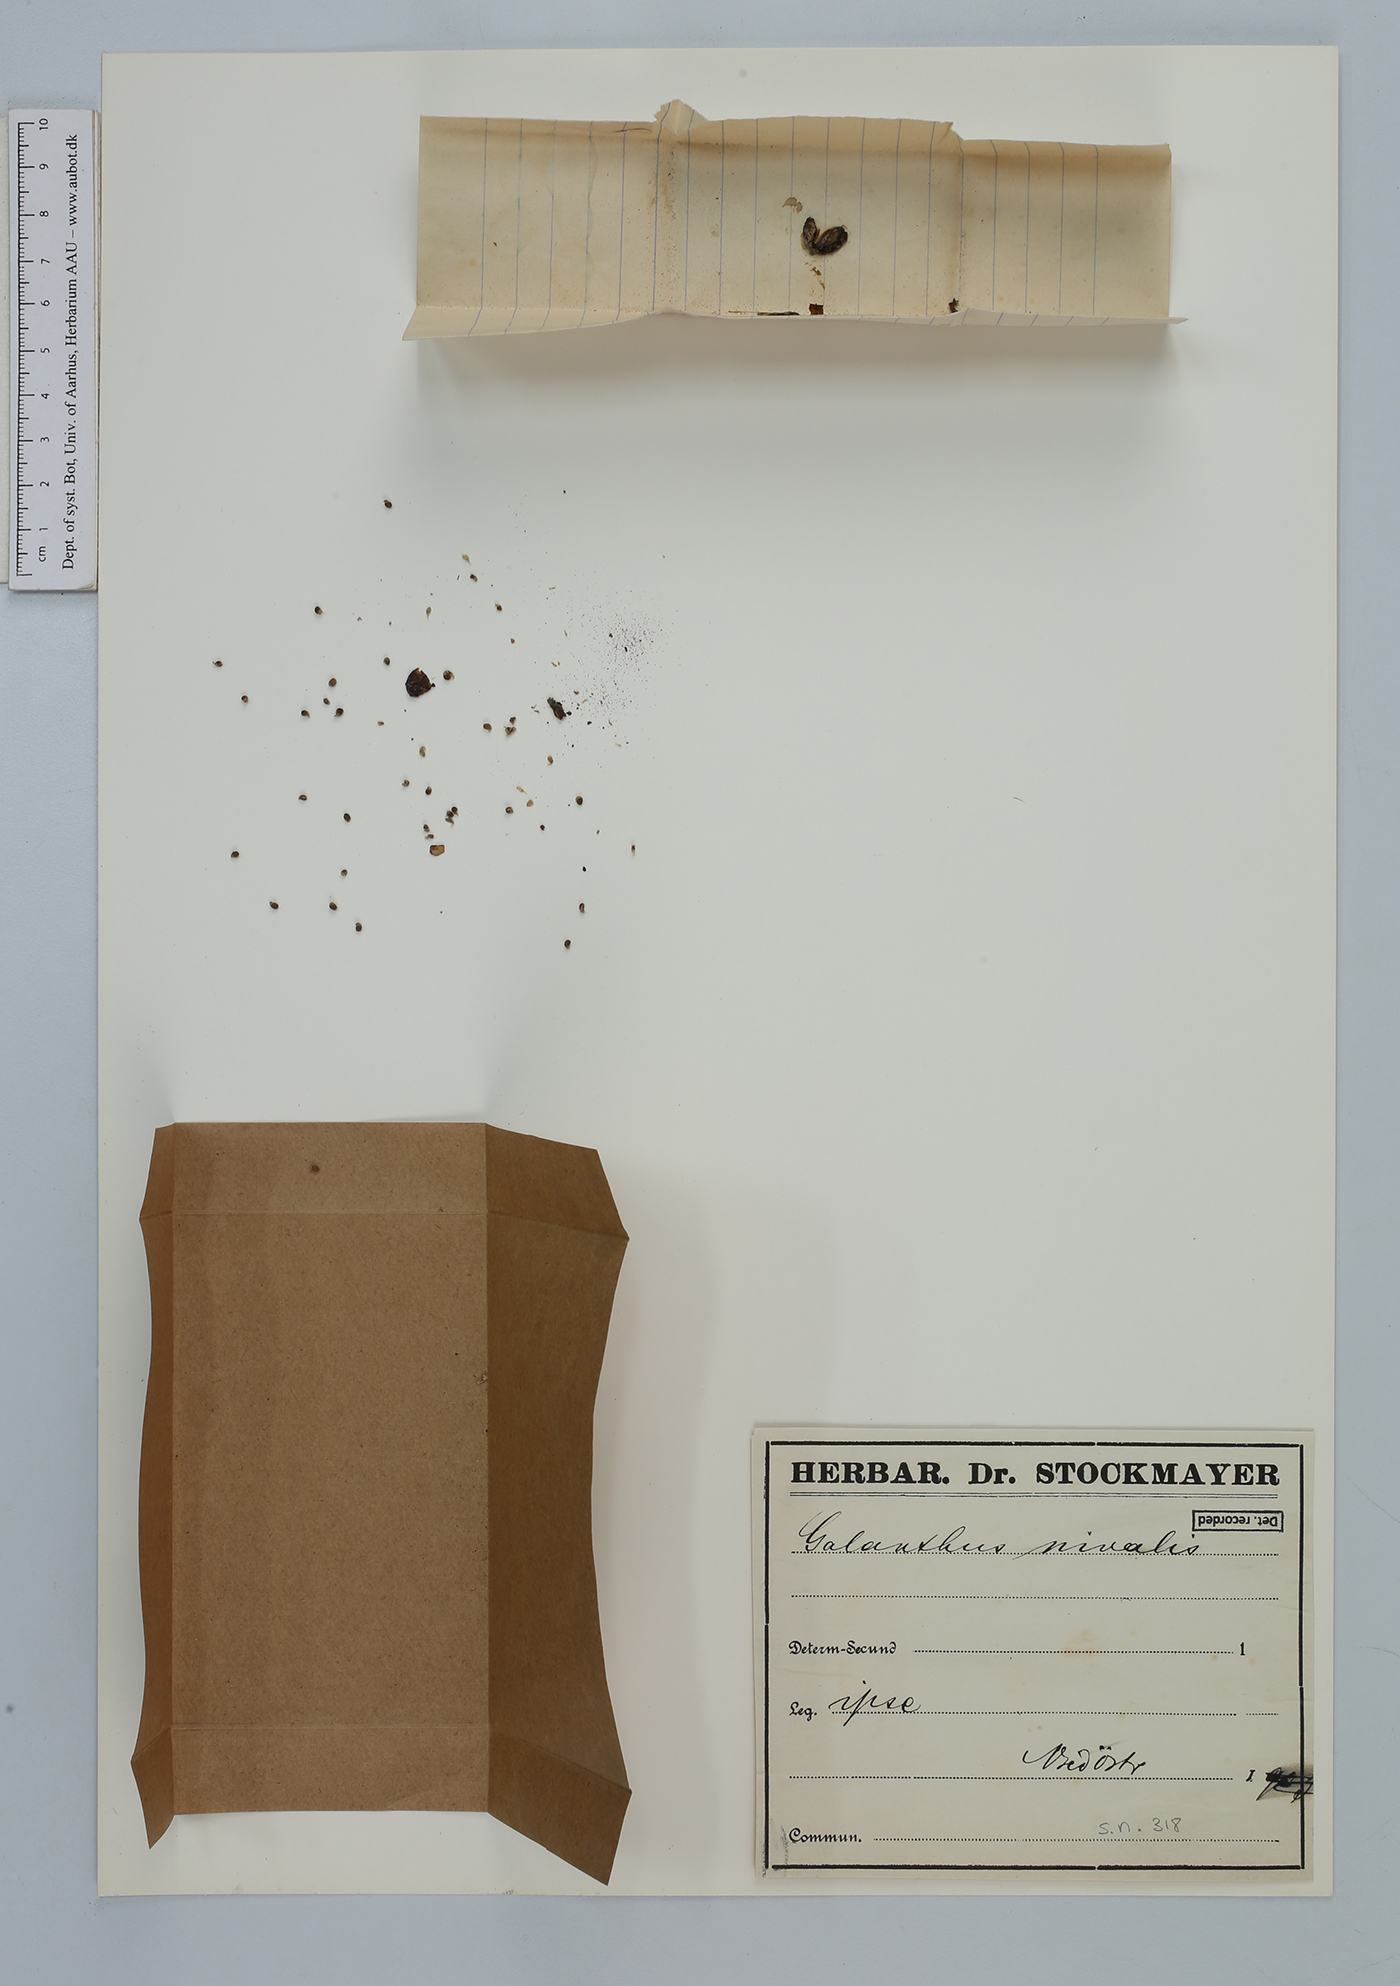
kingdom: Plantae
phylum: Tracheophyta
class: Liliopsida
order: Asparagales
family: Amaryllidaceae
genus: Galanthus
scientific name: Galanthus nivalis
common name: Snowdrop
